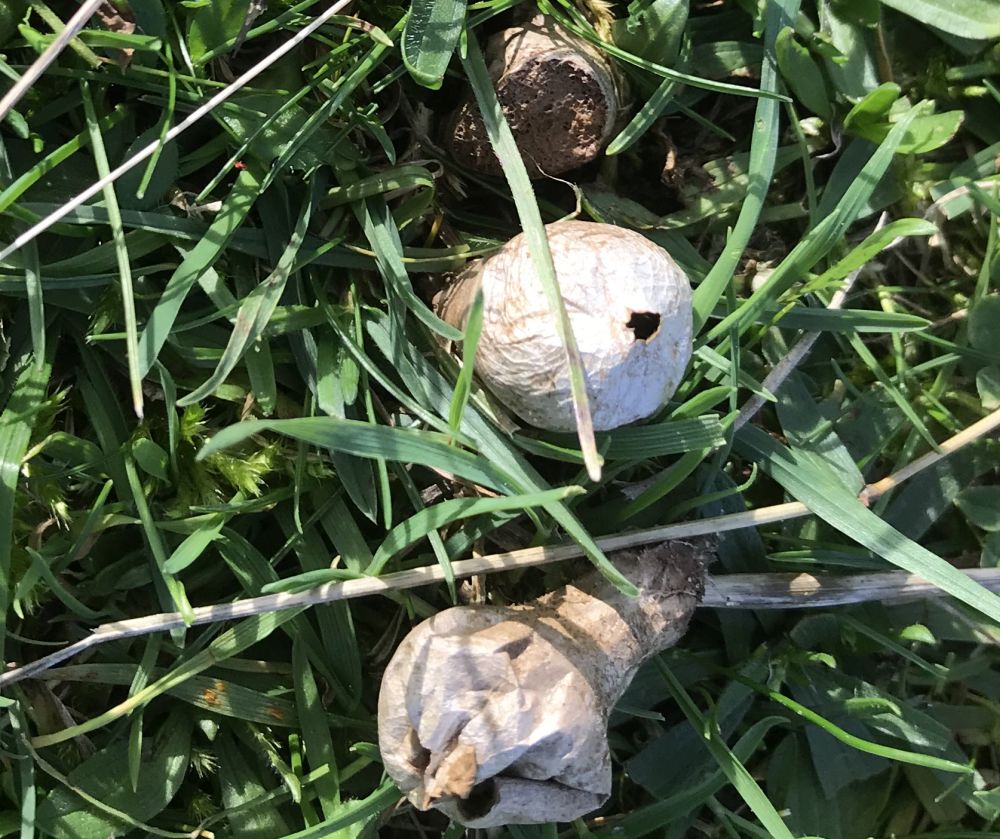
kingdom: Fungi
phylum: Basidiomycota
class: Agaricomycetes
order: Agaricales
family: Agaricaceae
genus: Lycoperdon
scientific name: Lycoperdon
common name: støvbold
